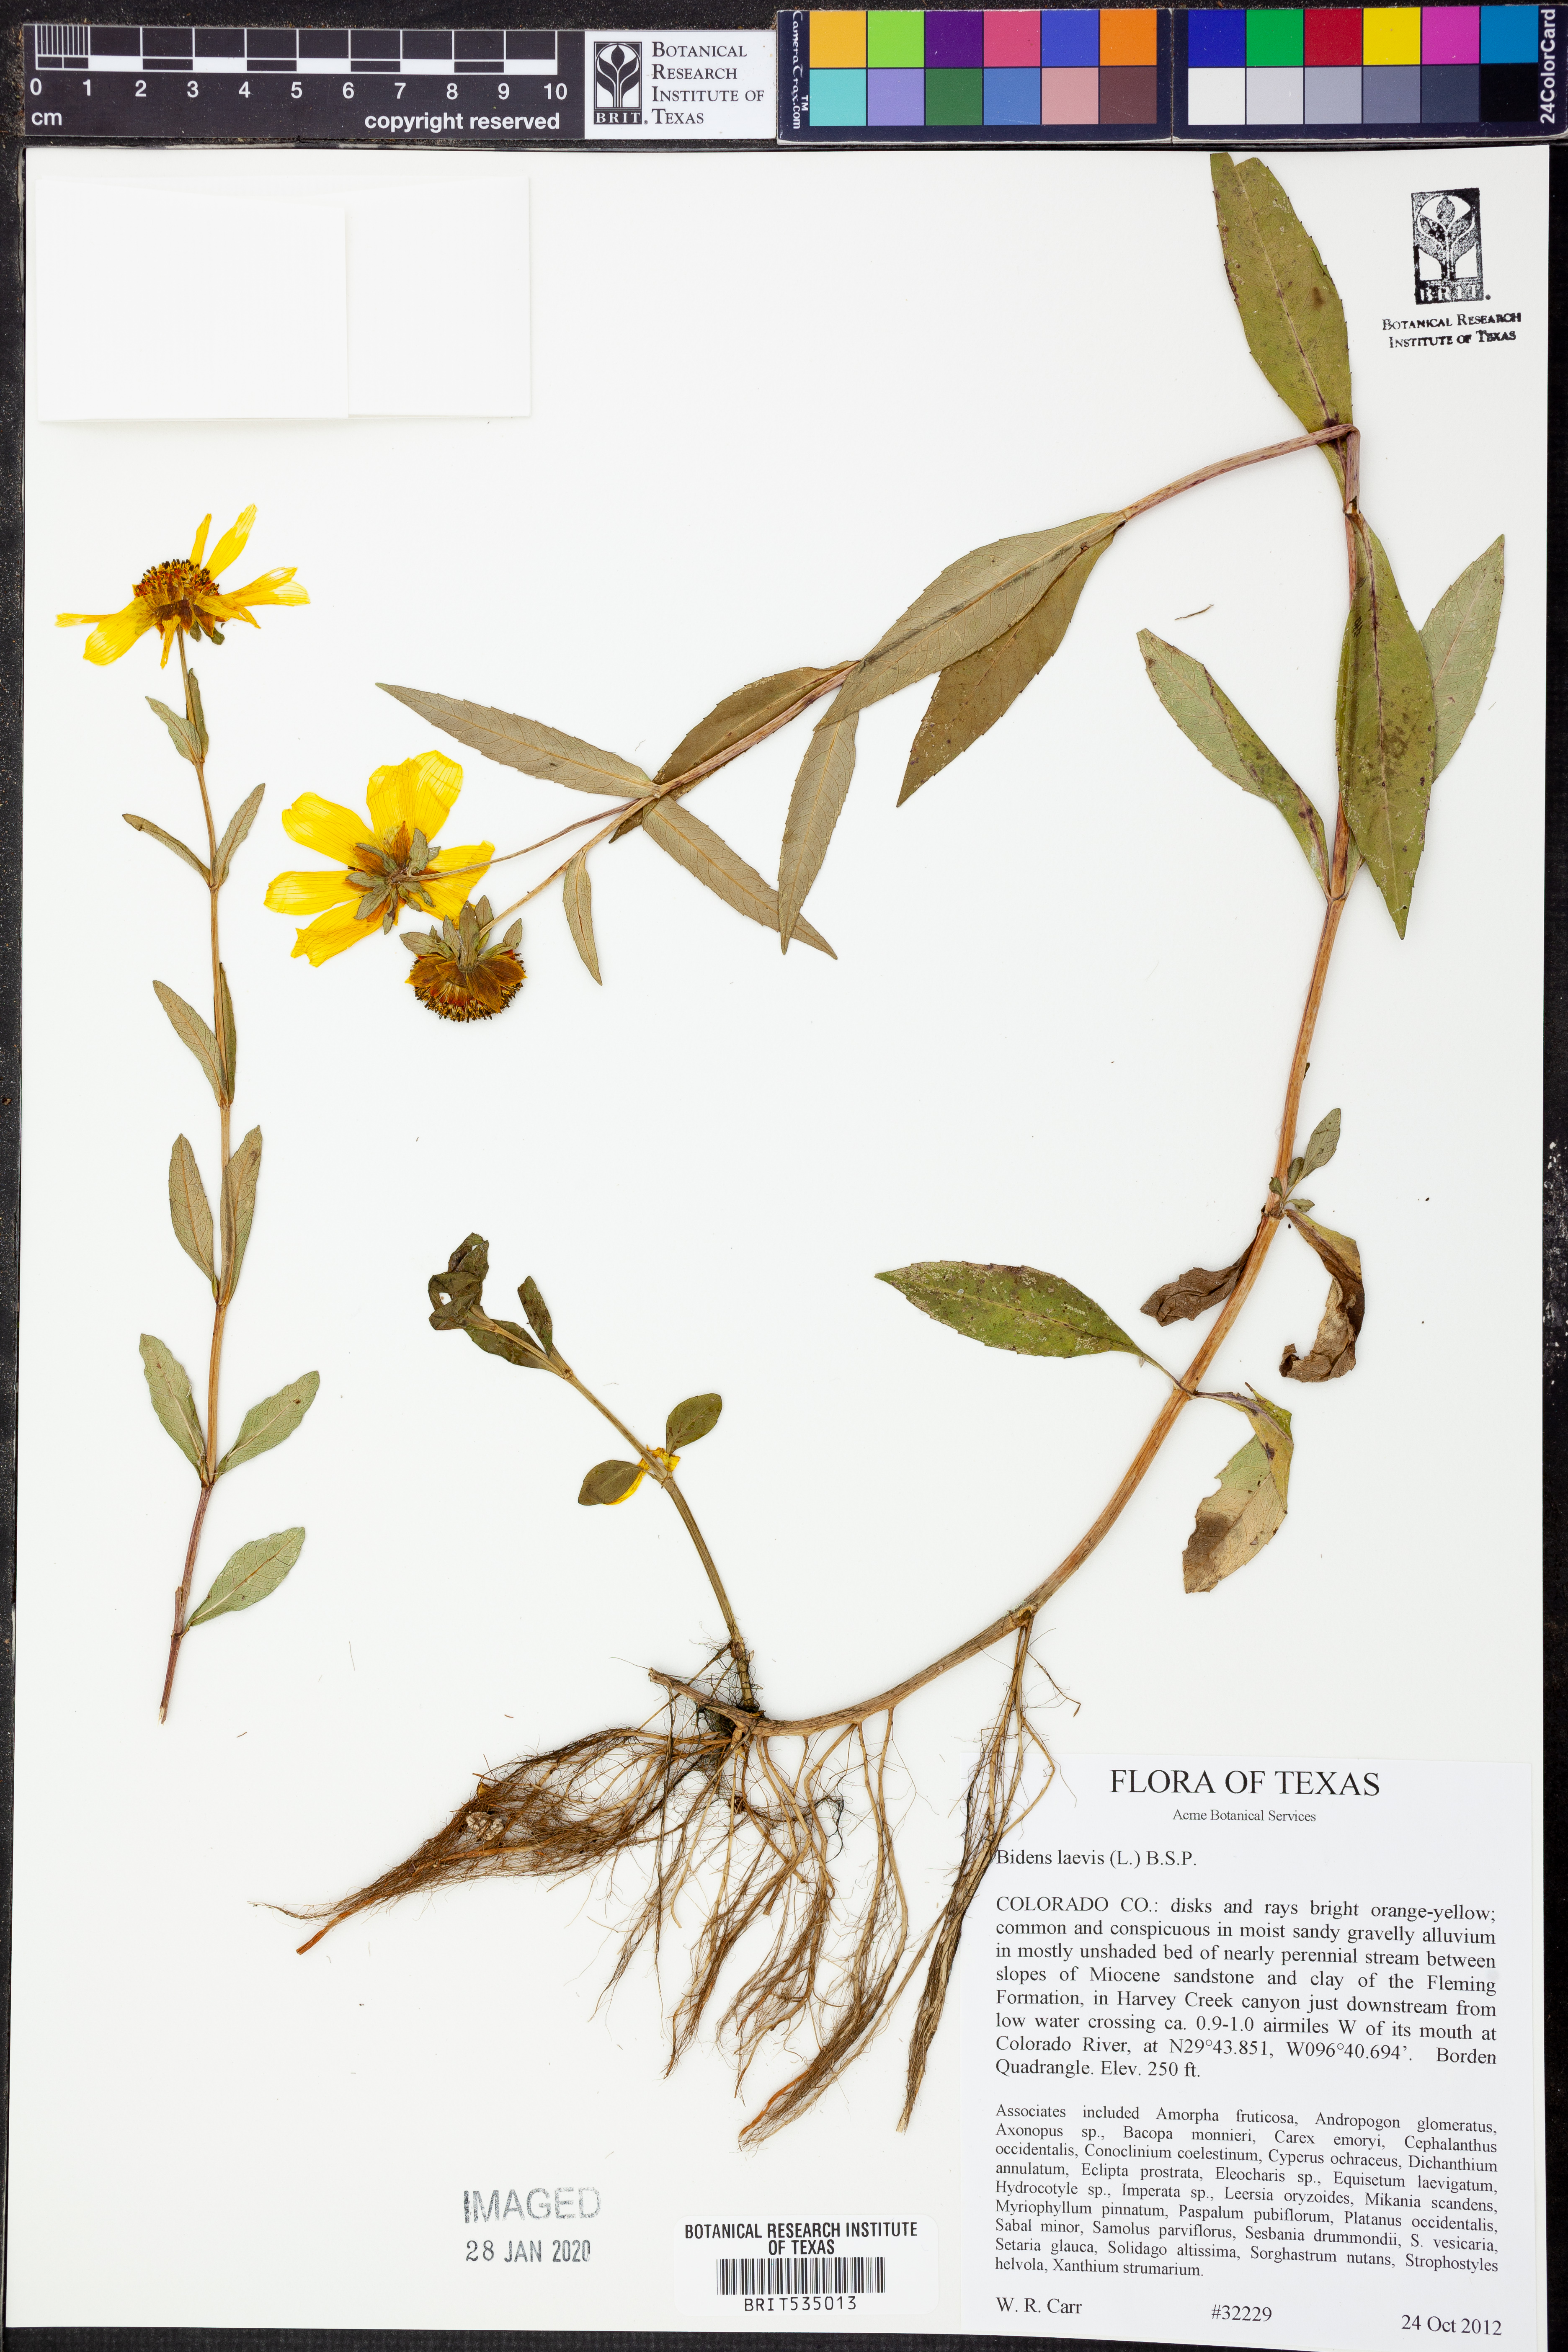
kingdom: Plantae
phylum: Tracheophyta
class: Magnoliopsida
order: Asterales
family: Asteraceae
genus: Bidens
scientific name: Bidens laevis
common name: Larger bur-marigold
